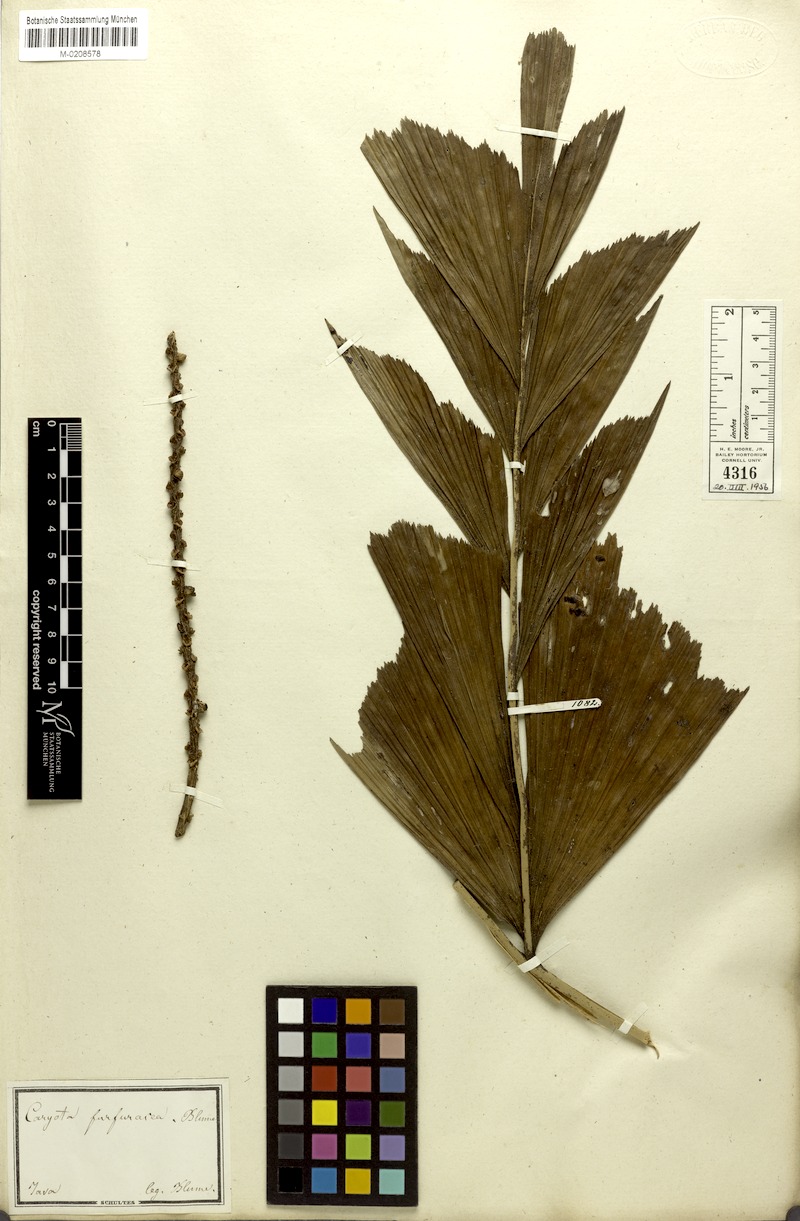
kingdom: Plantae
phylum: Tracheophyta
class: Liliopsida
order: Arecales
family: Arecaceae
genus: Caryota
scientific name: Caryota mitis
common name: Burmese fishtail palm
